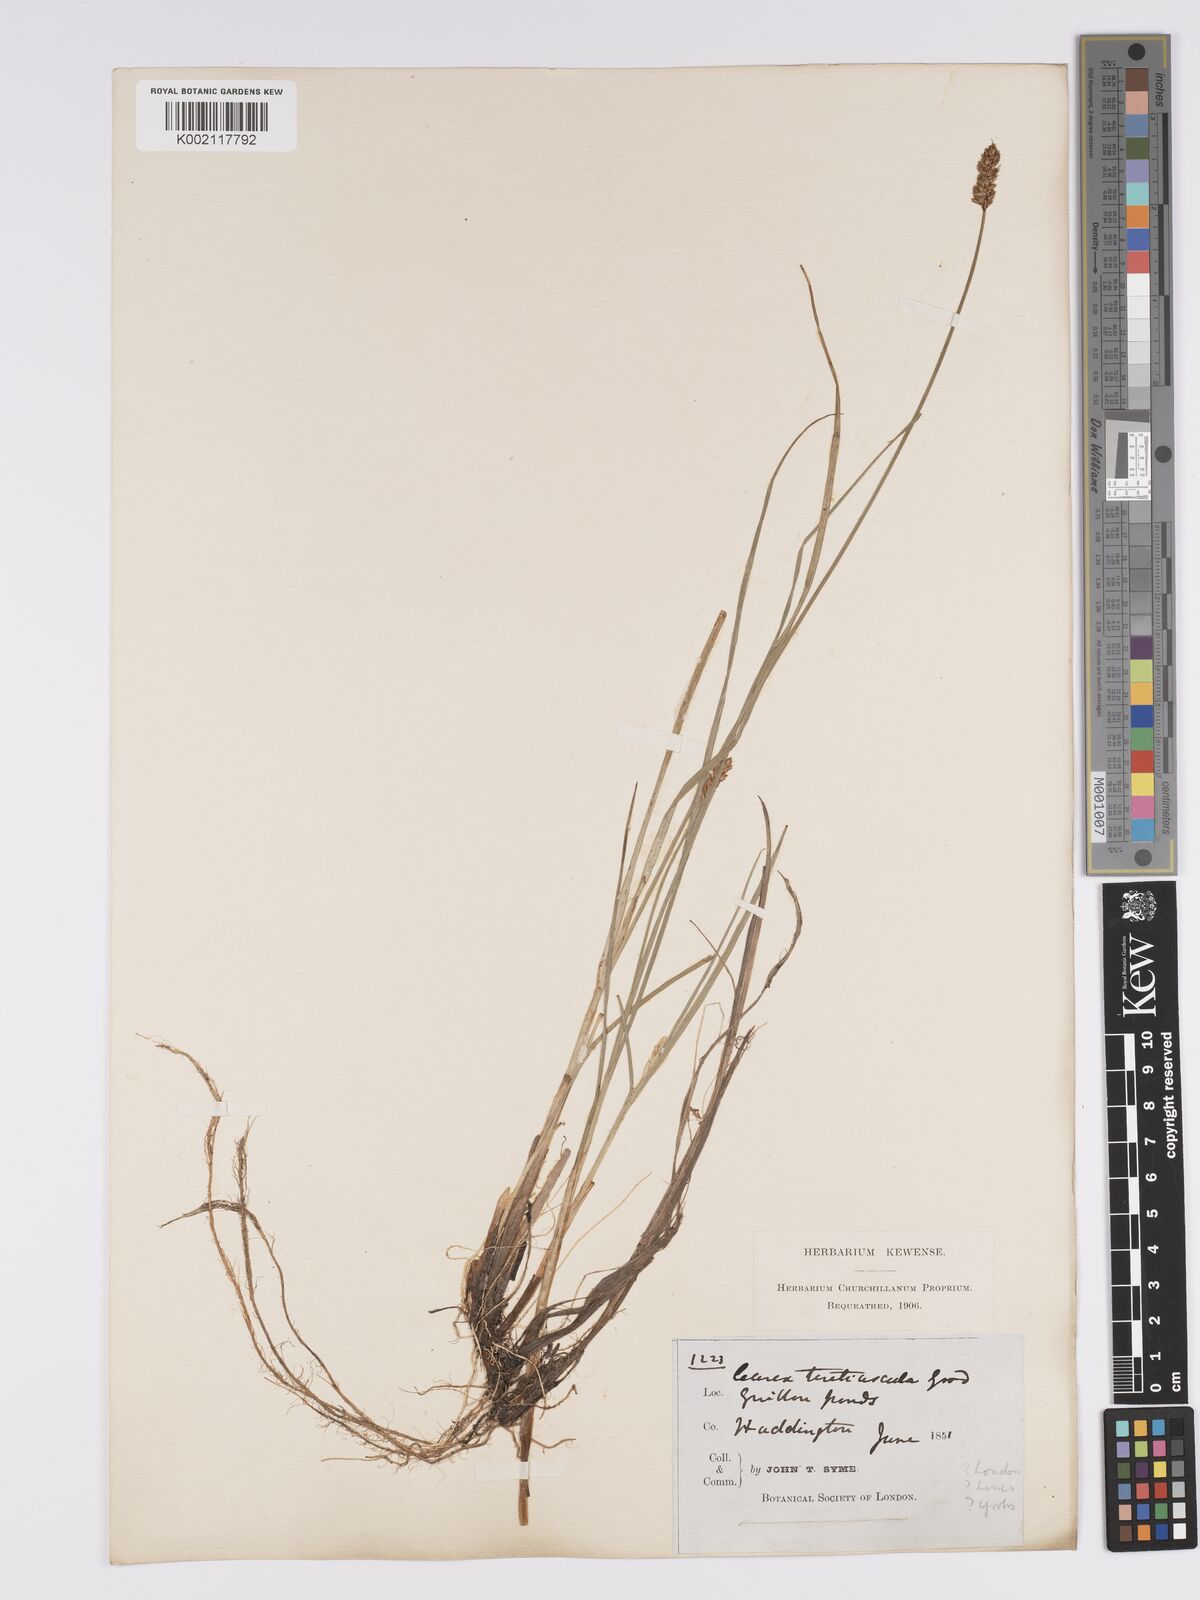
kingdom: Plantae
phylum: Tracheophyta
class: Liliopsida
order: Poales
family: Cyperaceae
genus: Carex
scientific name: Carex diandra
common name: Lesser tussock-sedge
